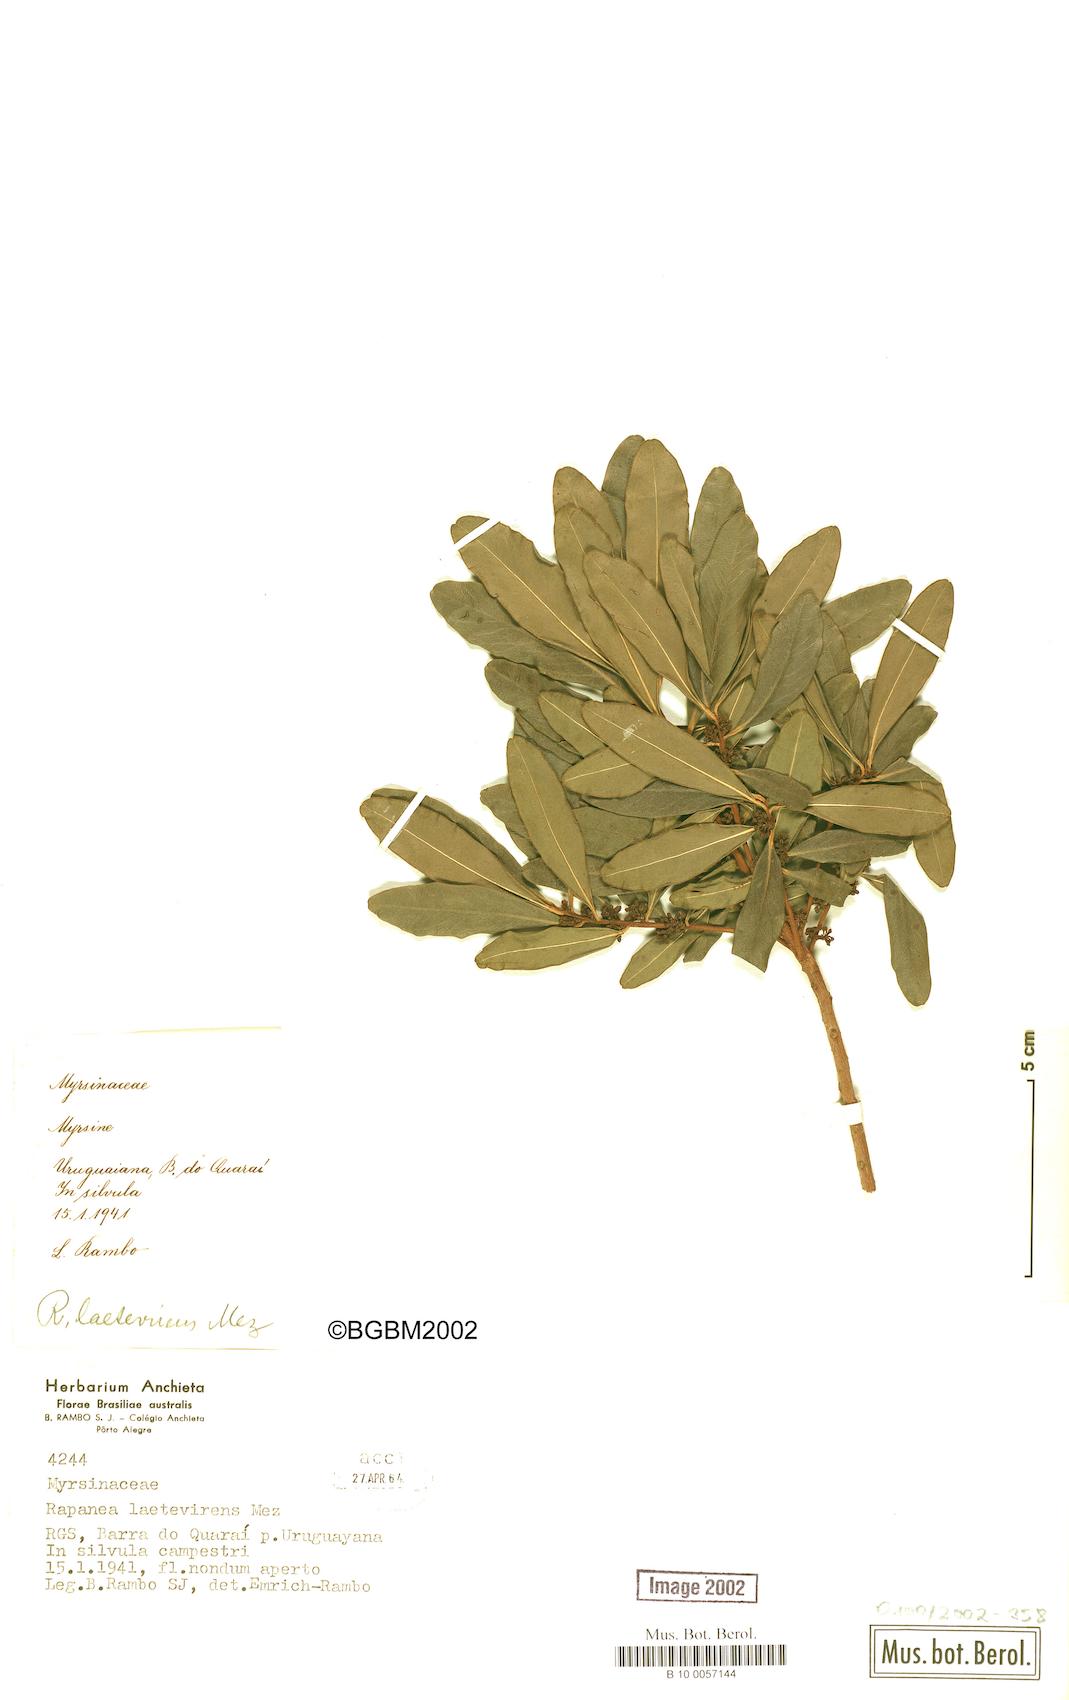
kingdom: Plantae
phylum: Tracheophyta
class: Magnoliopsida
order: Ericales
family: Primulaceae
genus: Myrsine
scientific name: Myrsine laetevirens
